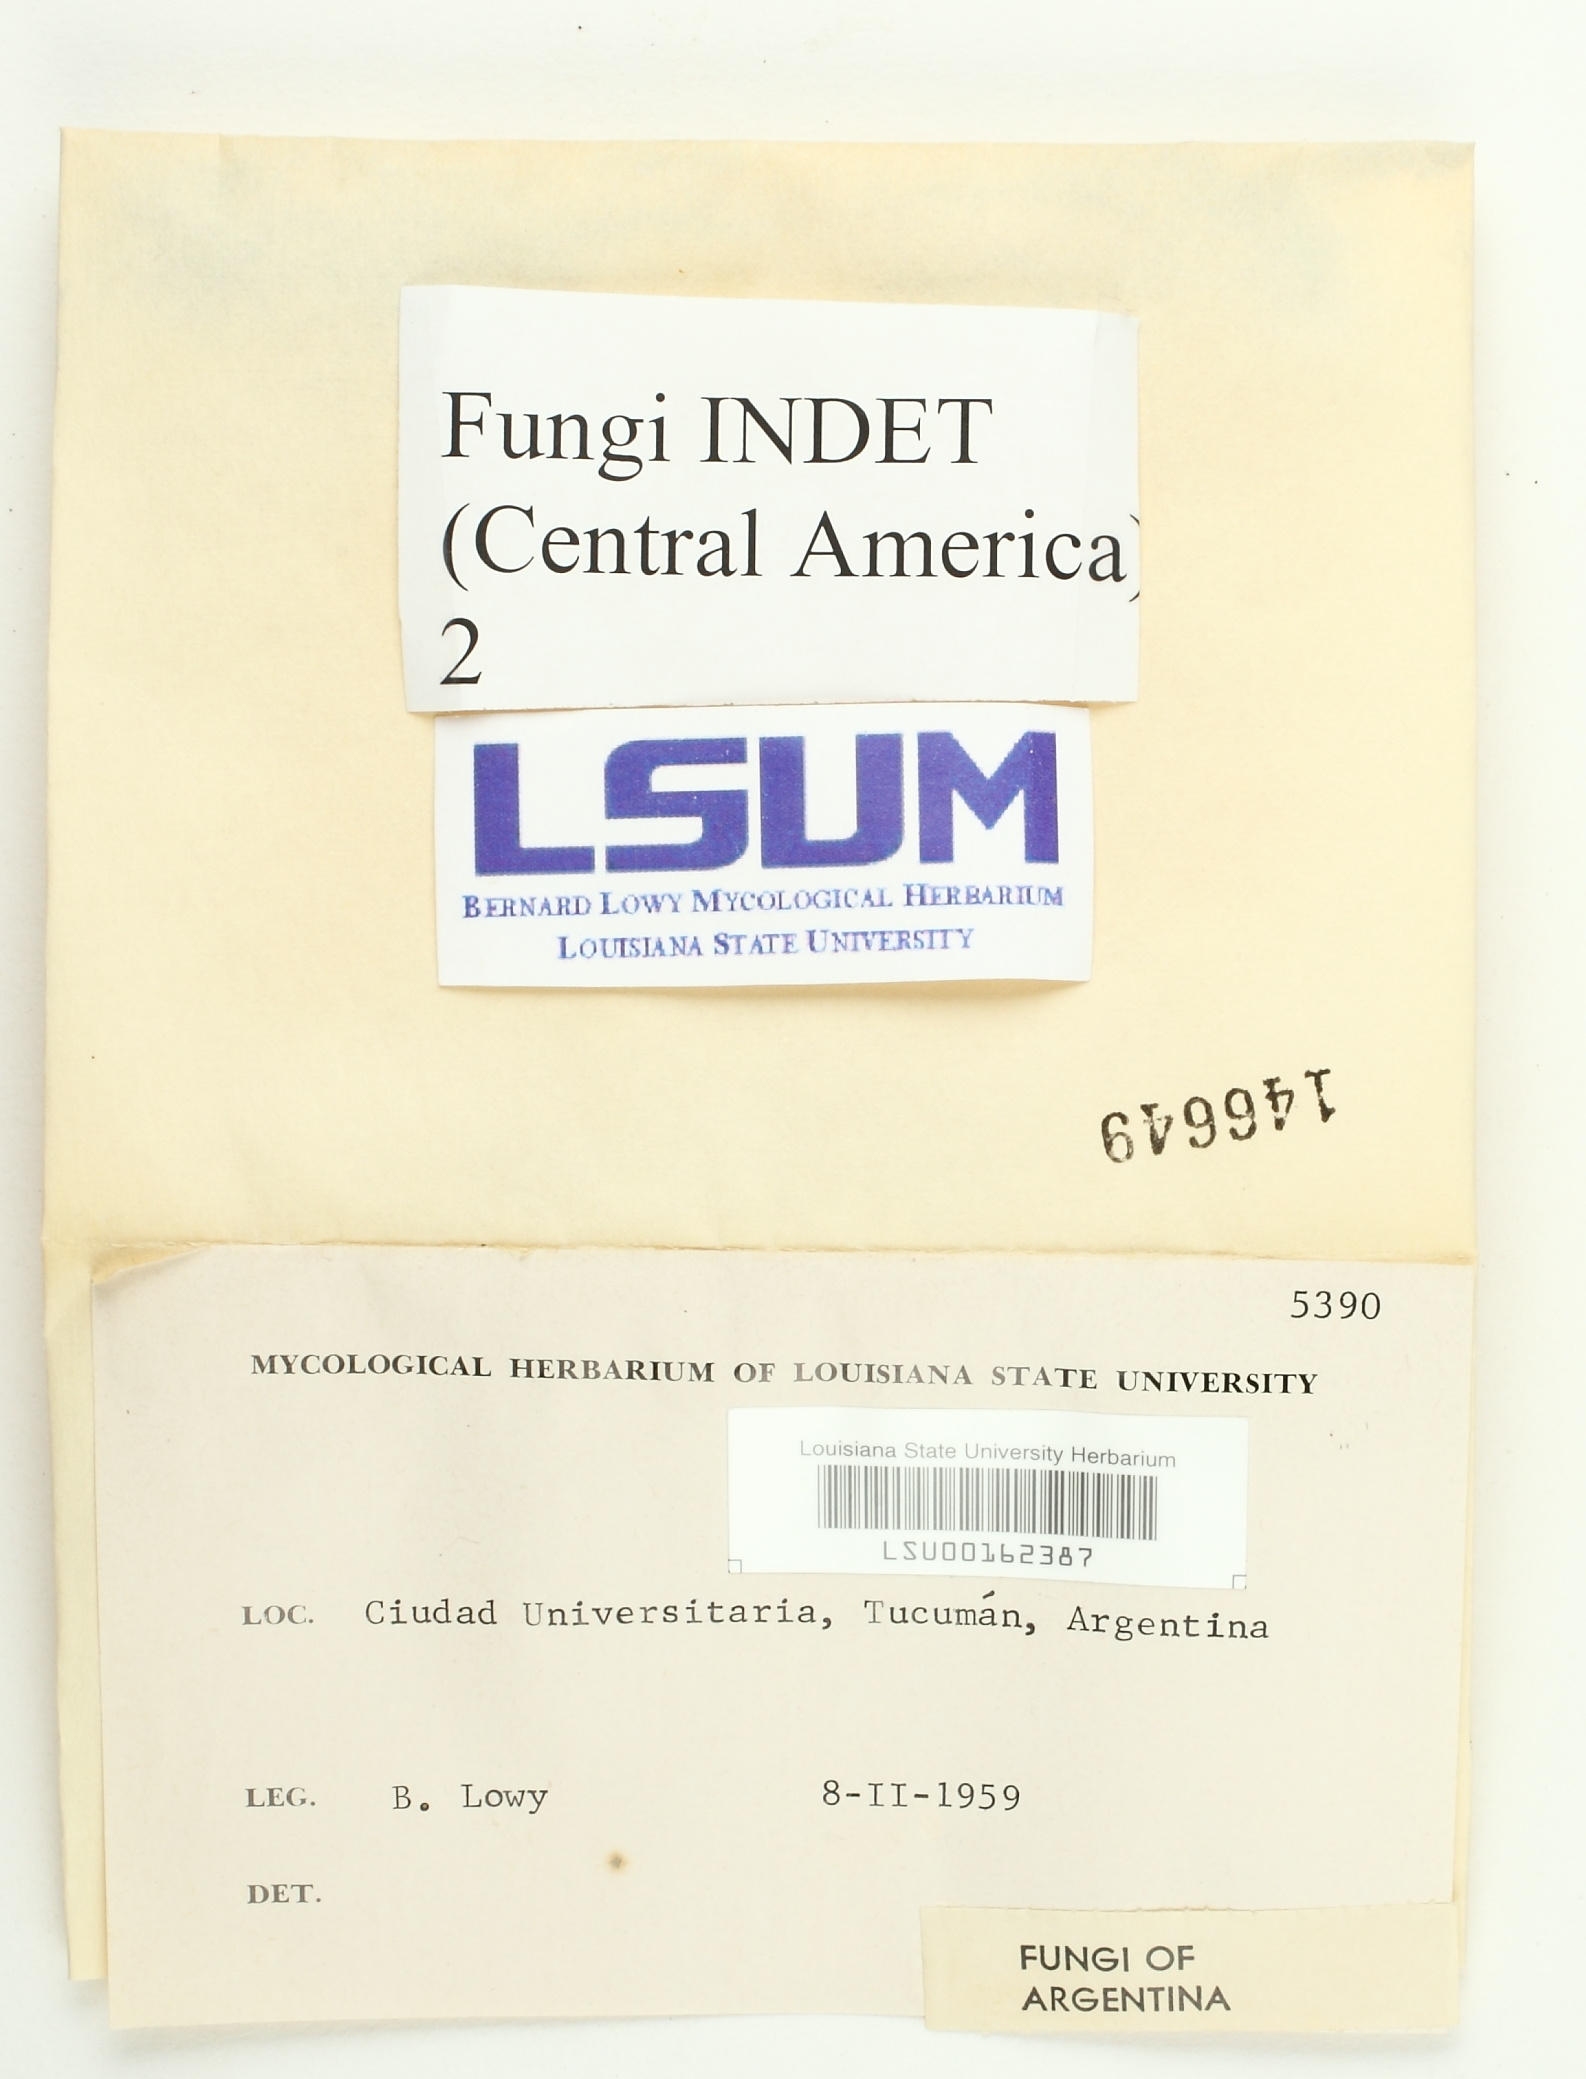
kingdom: Fungi
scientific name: Fungi
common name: Fungi
